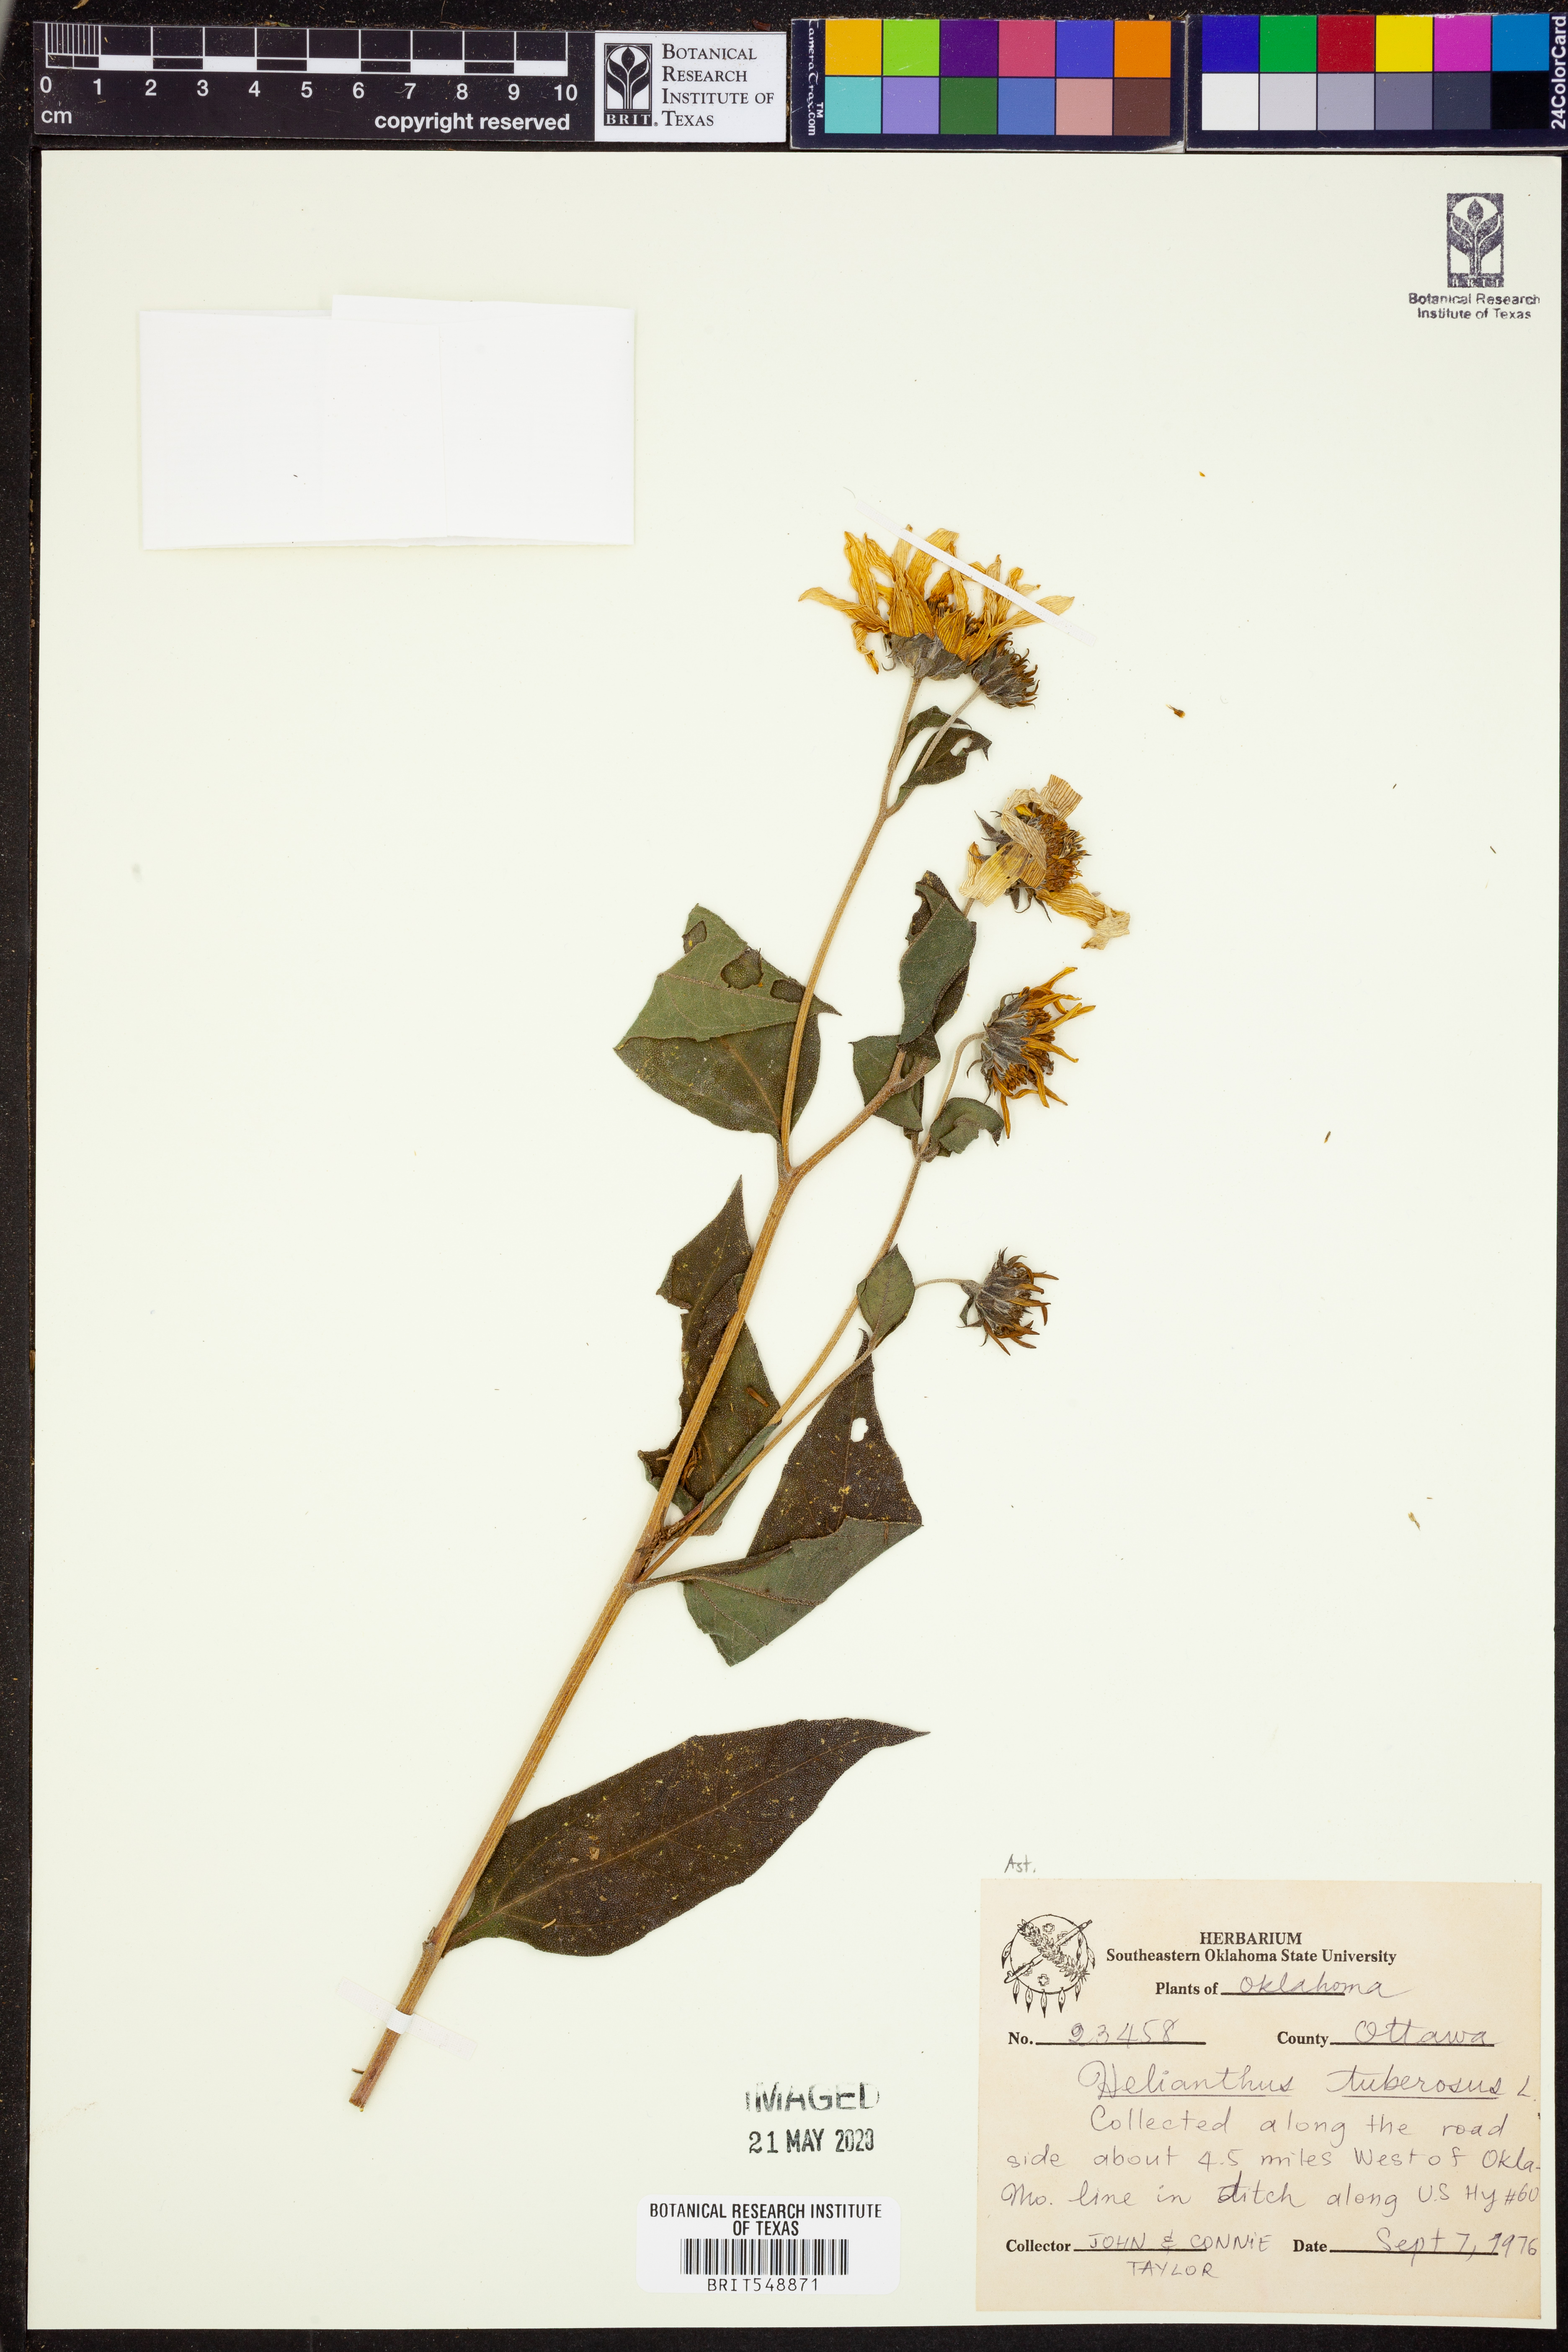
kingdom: Plantae
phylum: Tracheophyta
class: Magnoliopsida
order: Asterales
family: Asteraceae
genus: Helianthus
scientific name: Helianthus tuberosus
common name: Jerusalem artichoke
